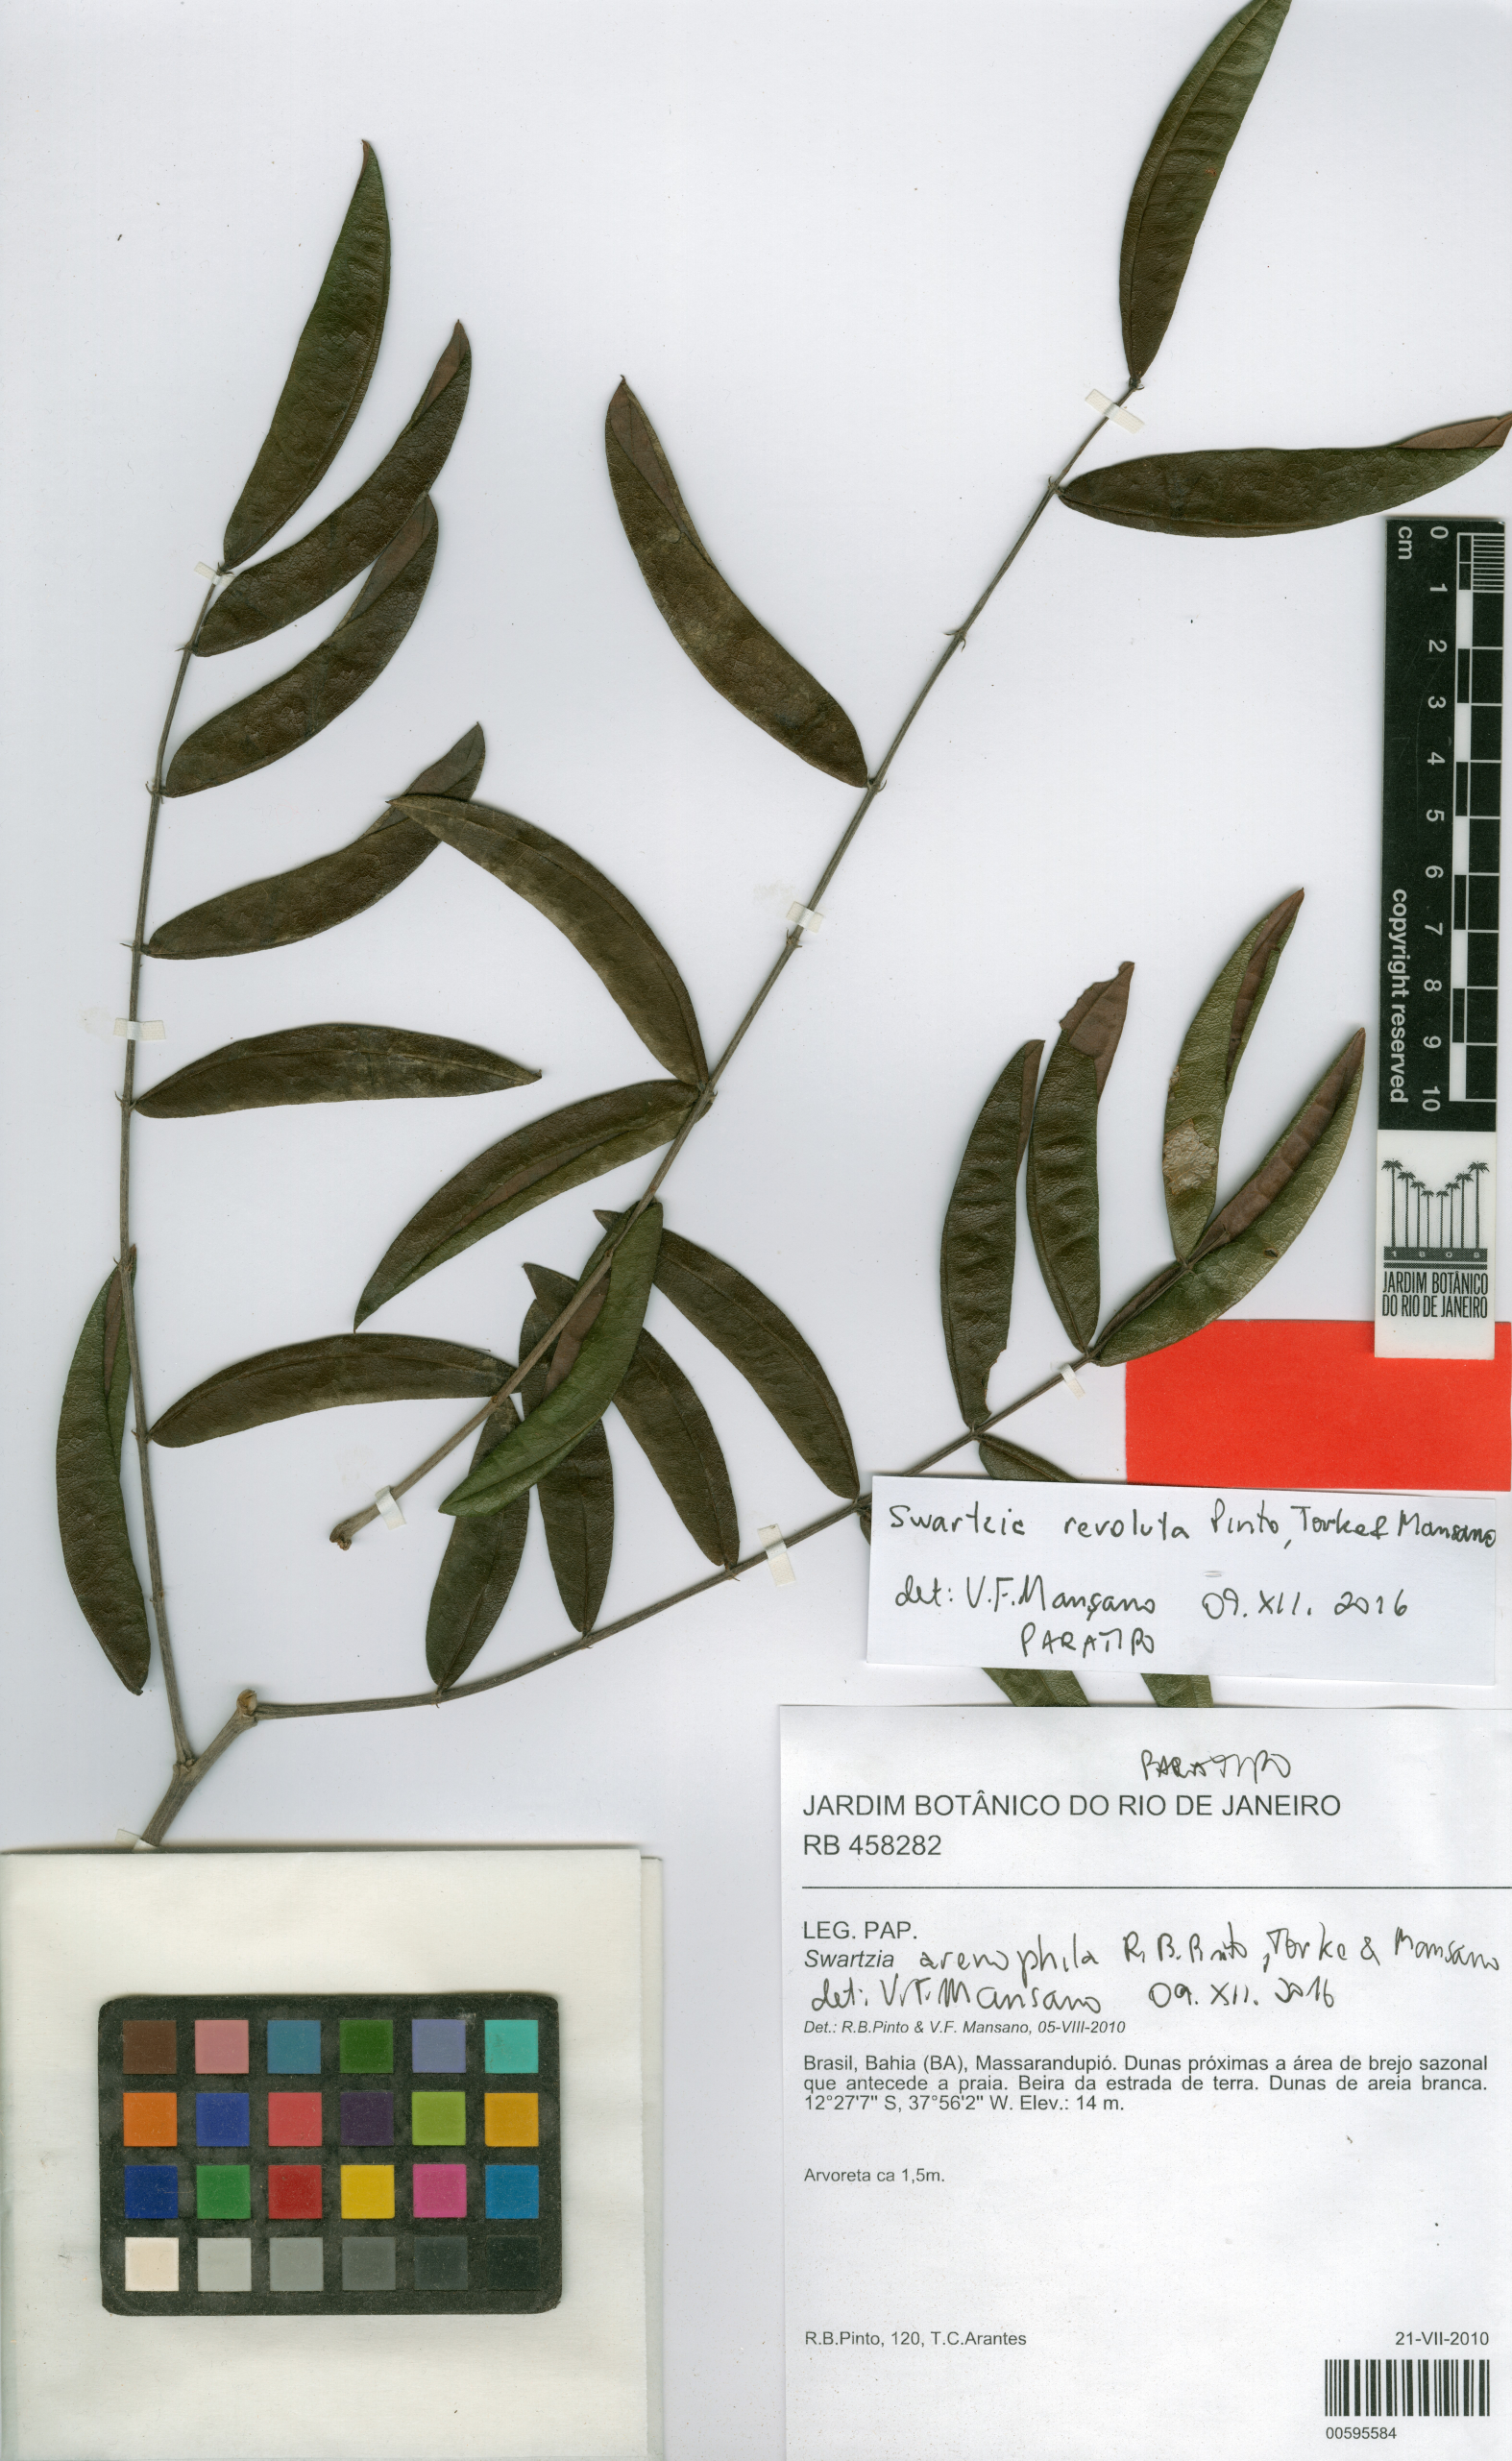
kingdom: Plantae
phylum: Tracheophyta
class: Magnoliopsida
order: Fabales
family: Fabaceae
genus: Swartzia
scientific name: Swartzia revoluta
